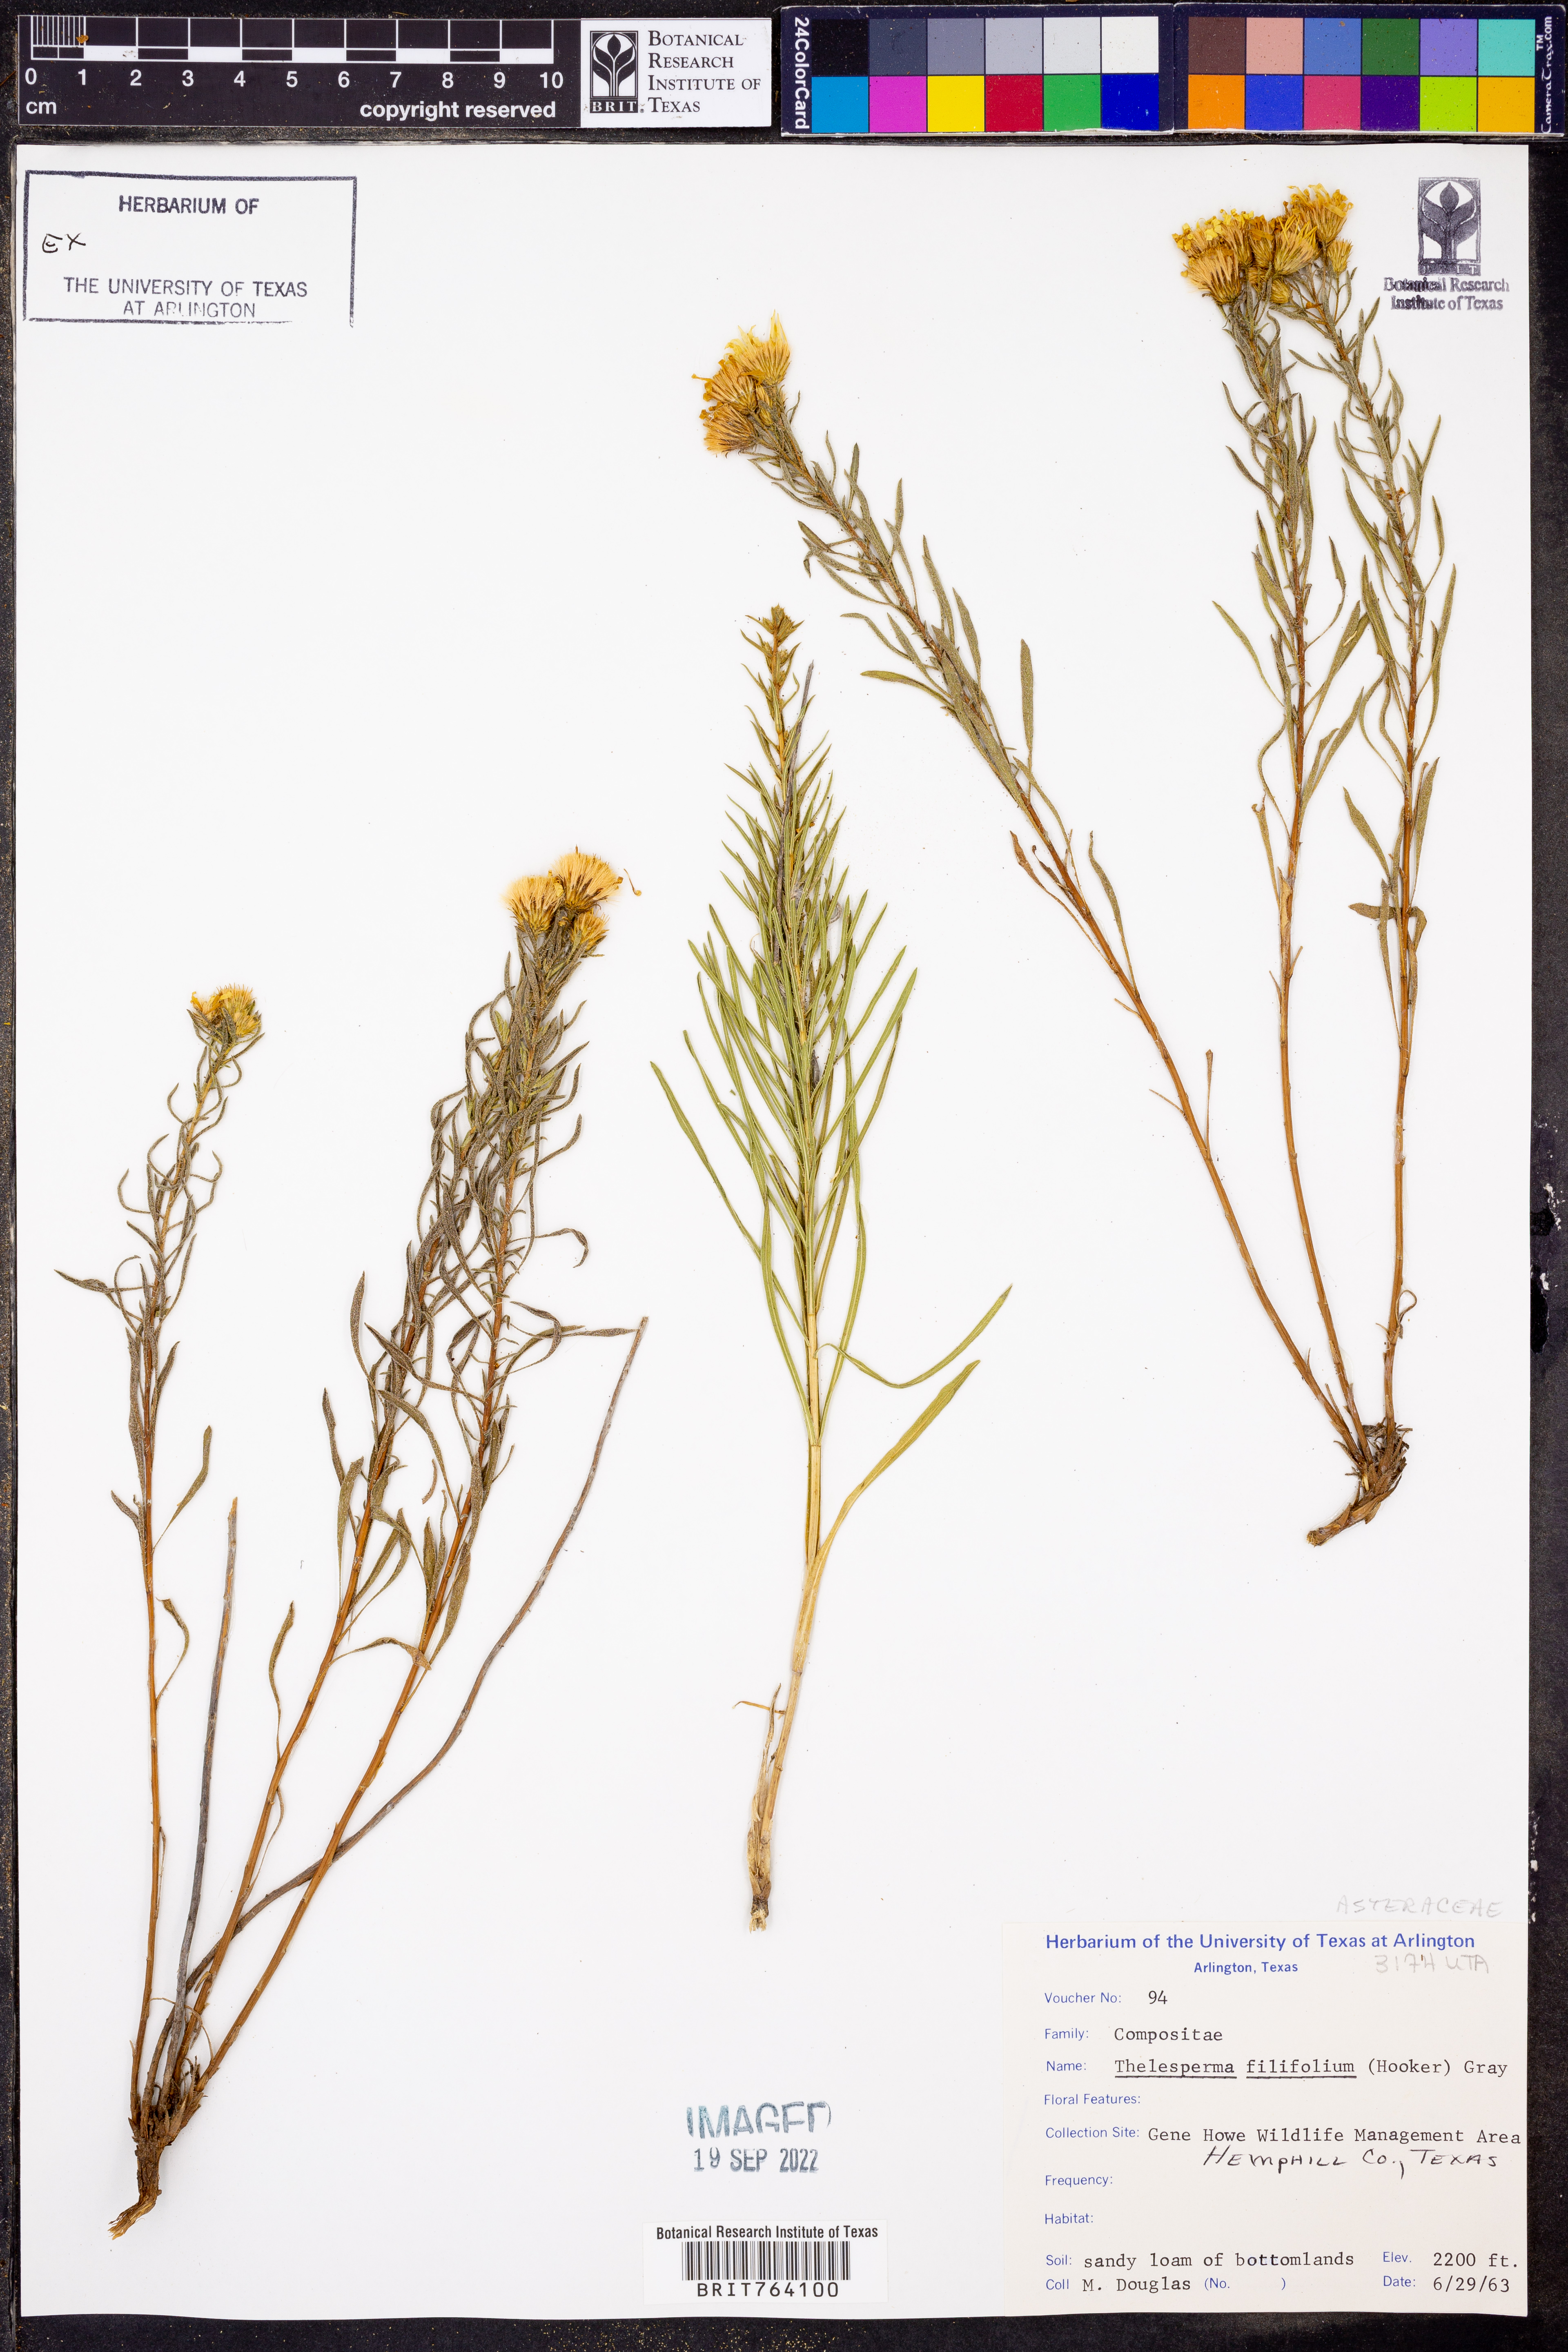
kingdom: Plantae
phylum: Tracheophyta
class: Magnoliopsida
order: Asterales
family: Asteraceae
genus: Thelesperma
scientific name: Thelesperma filifolium
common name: Stiff greenthread
